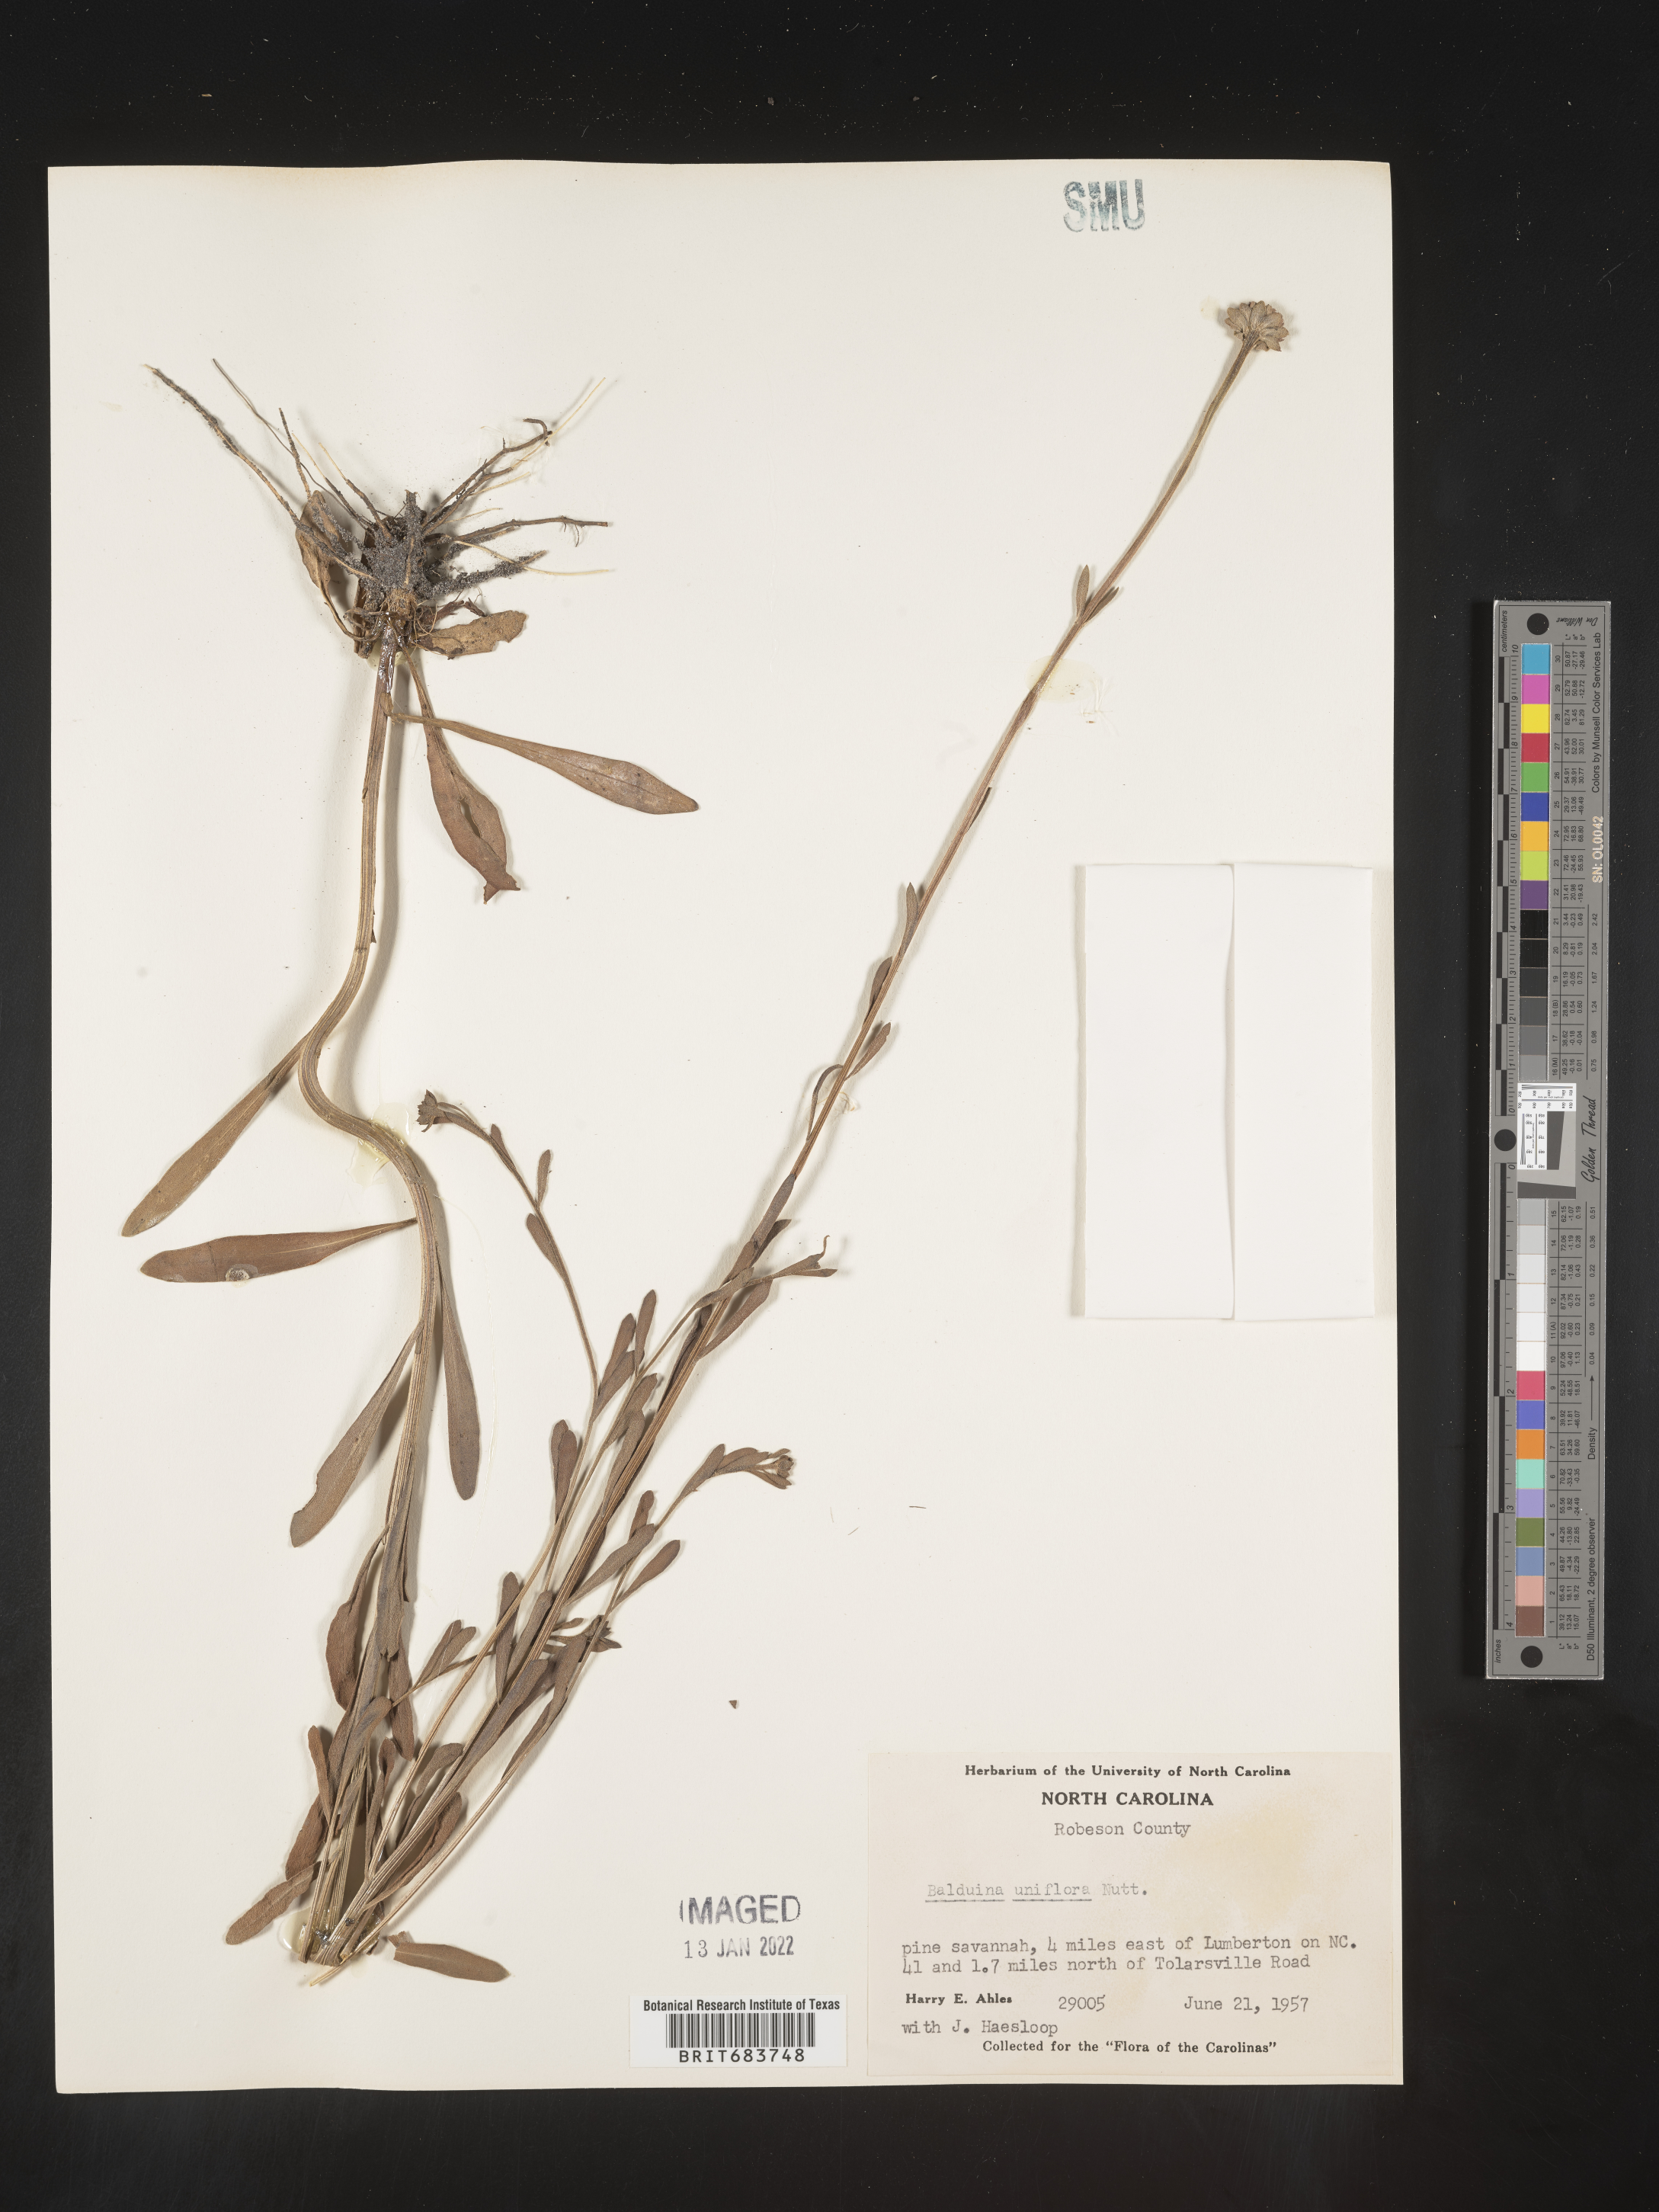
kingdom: Plantae
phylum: Tracheophyta
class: Magnoliopsida
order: Asterales
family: Asteraceae
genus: Balduina
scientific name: Balduina uniflora
